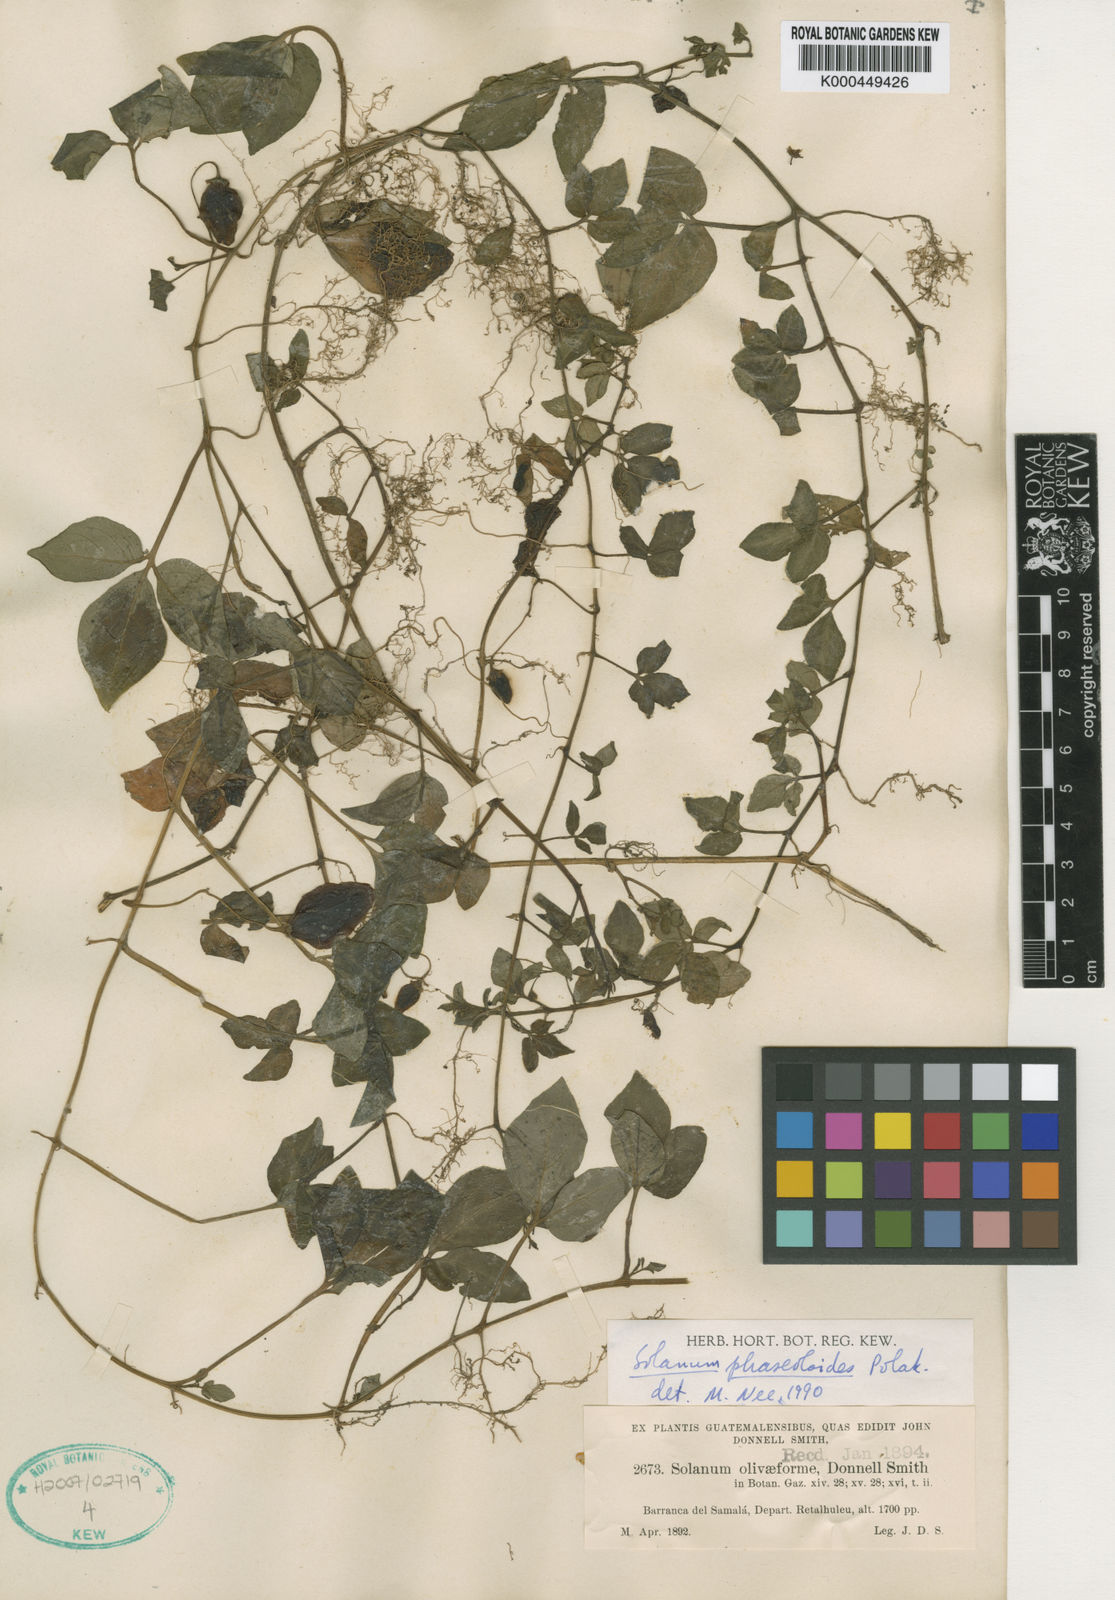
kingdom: Plantae
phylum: Tracheophyta
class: Magnoliopsida
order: Solanales
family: Solanaceae
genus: Solanum
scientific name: Solanum phaseoloides
